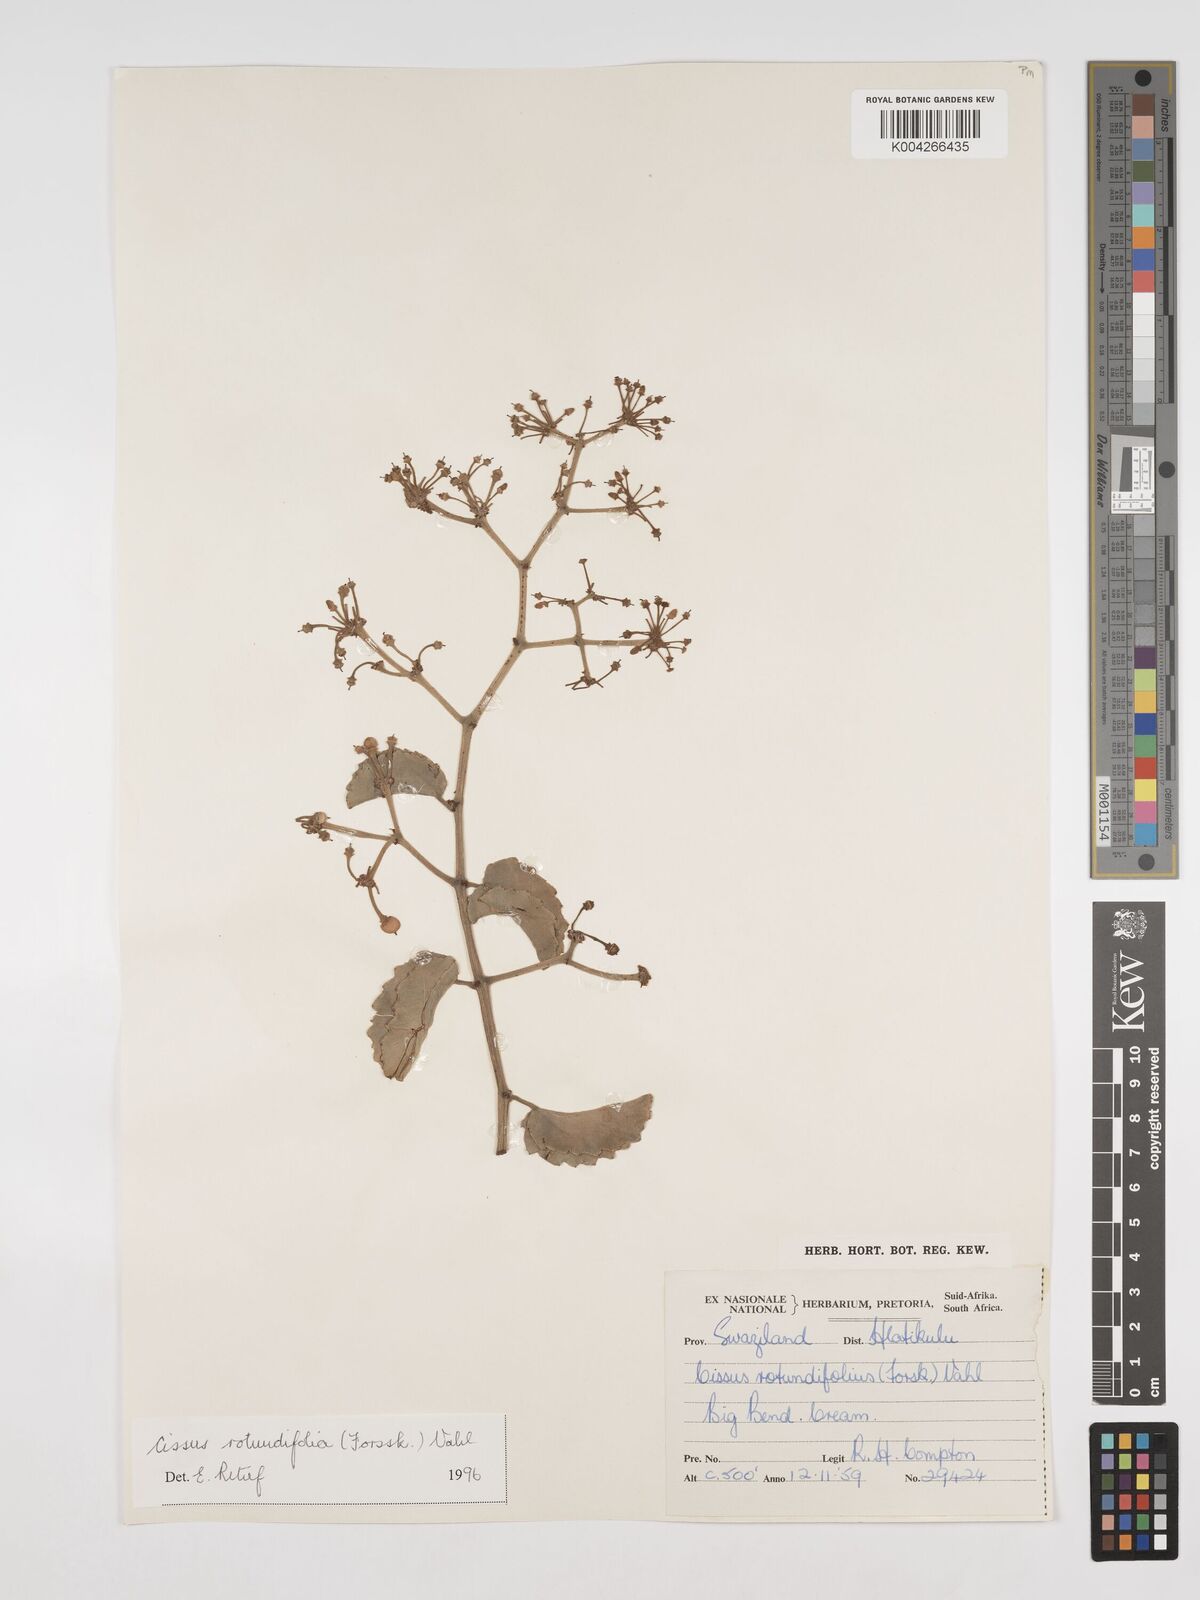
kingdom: Plantae
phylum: Tracheophyta
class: Magnoliopsida
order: Vitales
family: Vitaceae
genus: Cissus
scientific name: Cissus
